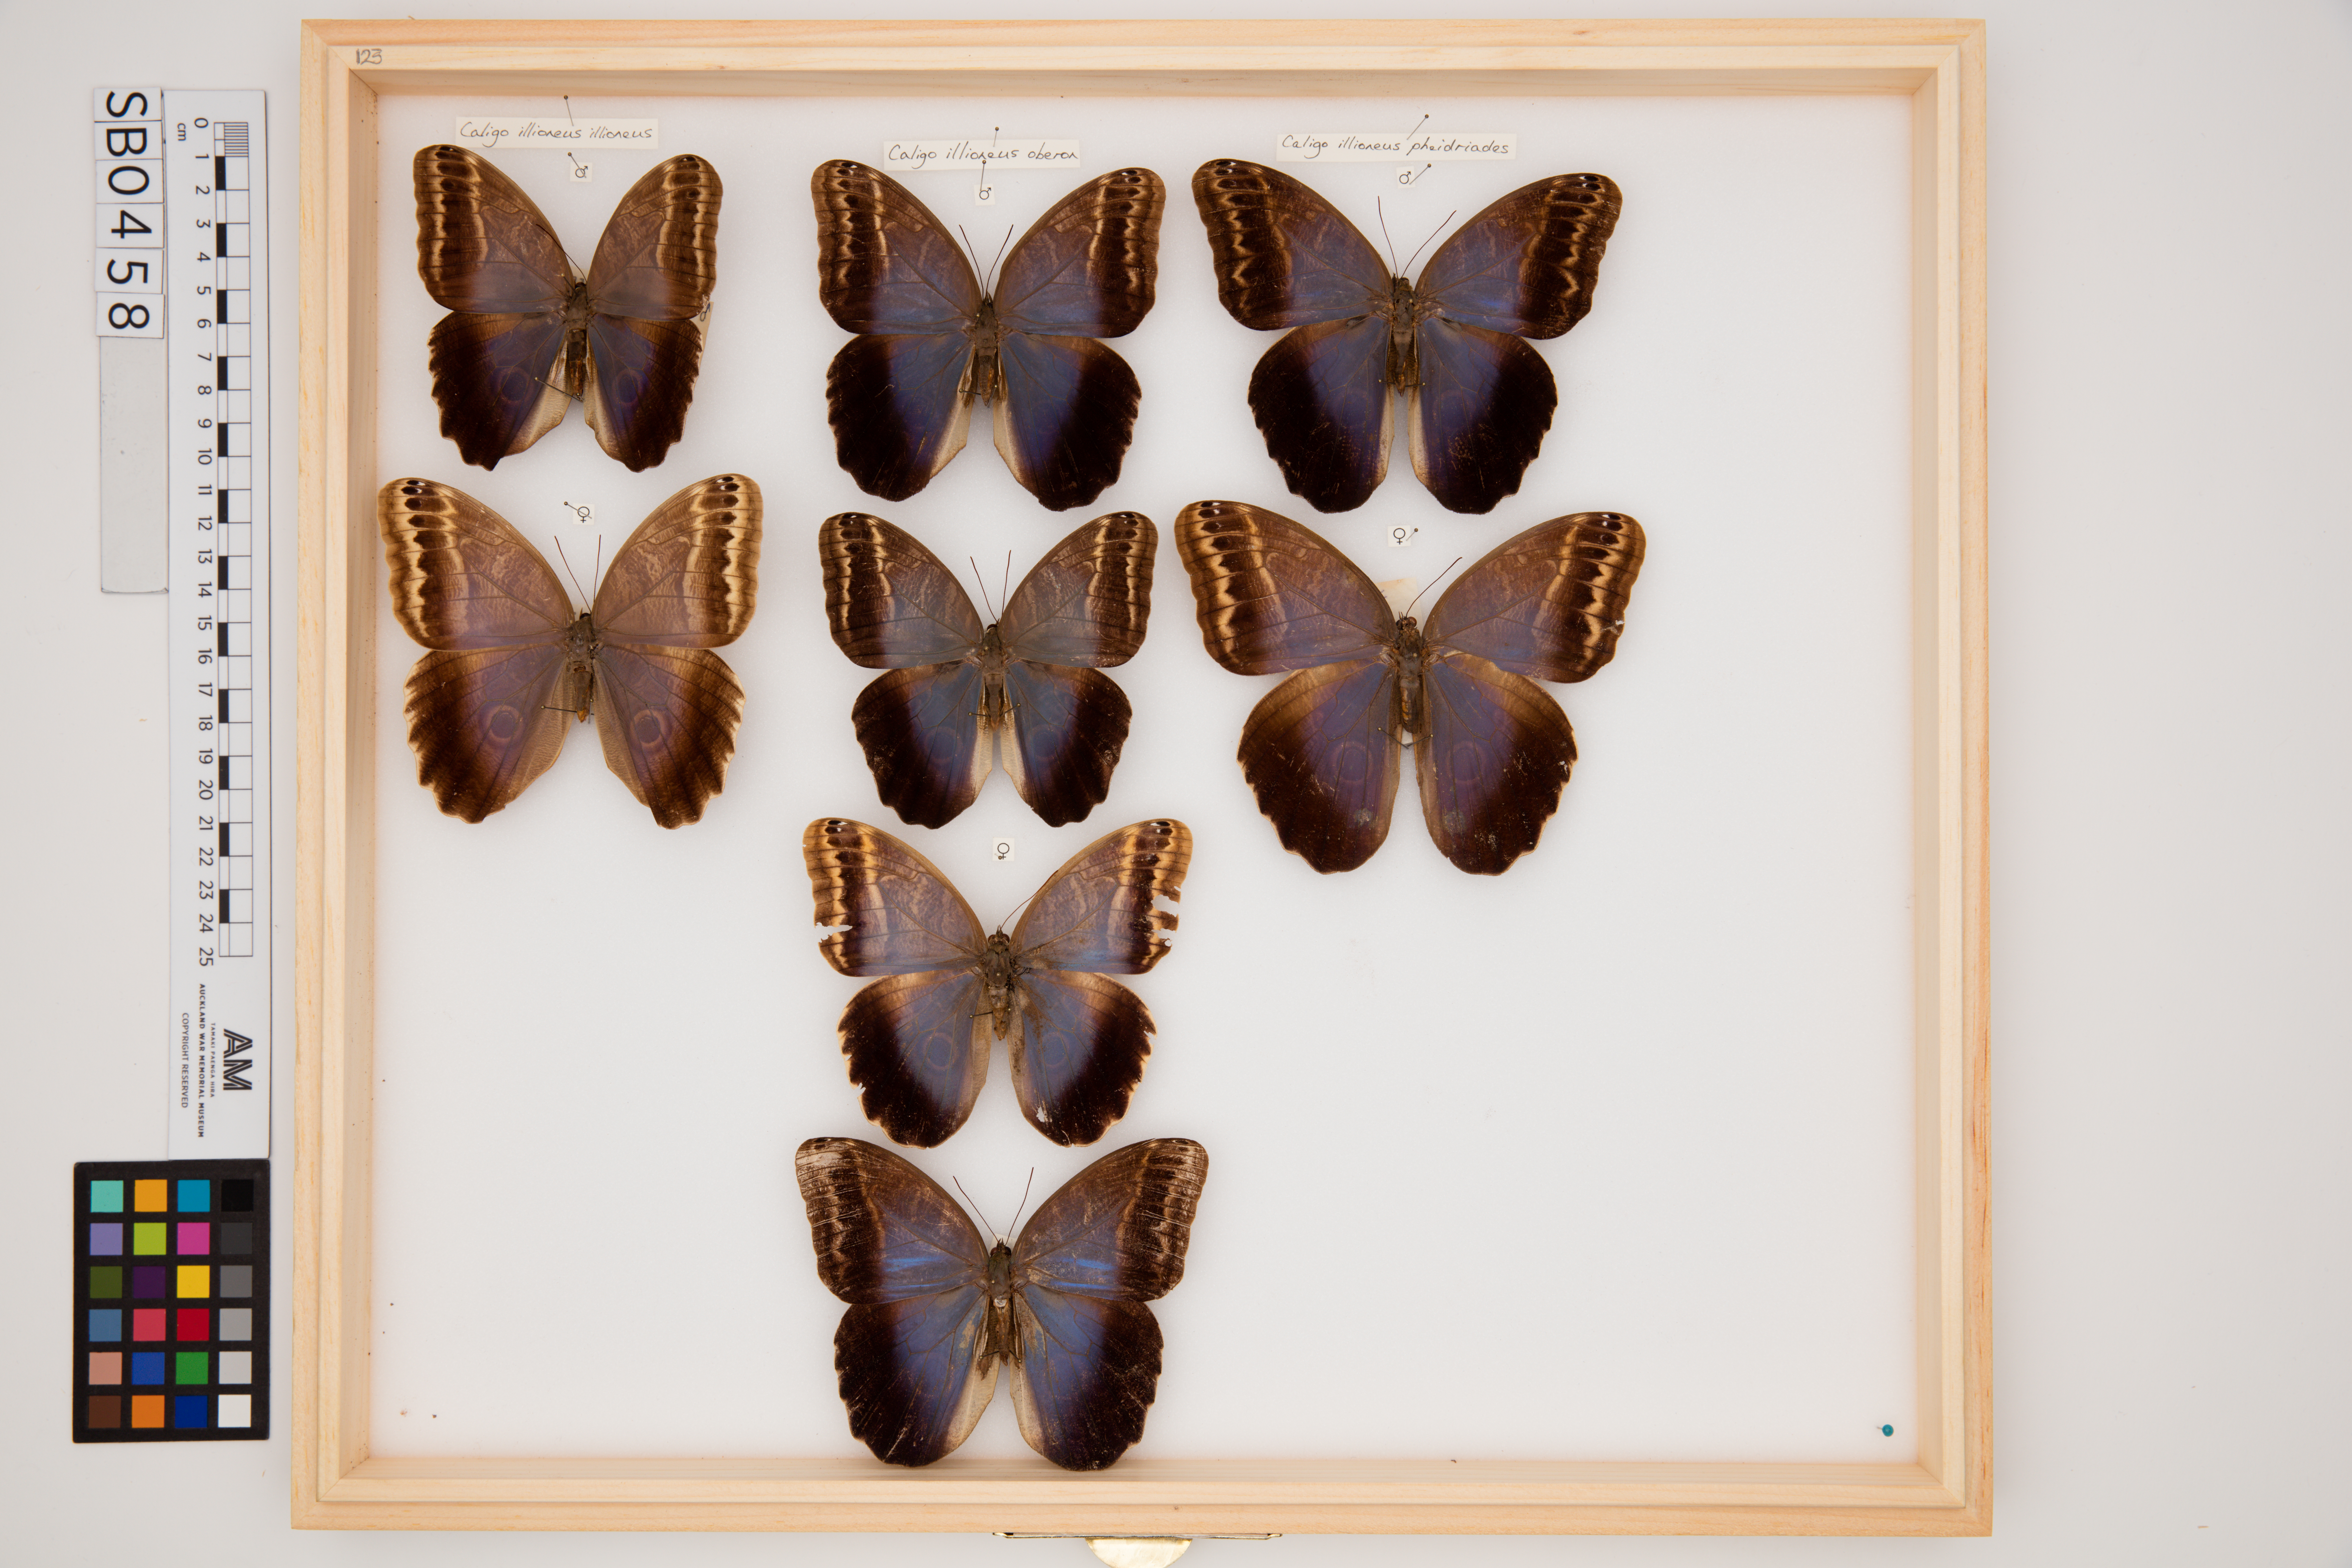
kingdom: Animalia
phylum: Arthropoda
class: Insecta
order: Lepidoptera
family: Nymphalidae
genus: Caligo
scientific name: Caligo illioneus
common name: Dusky owl-butterfly
